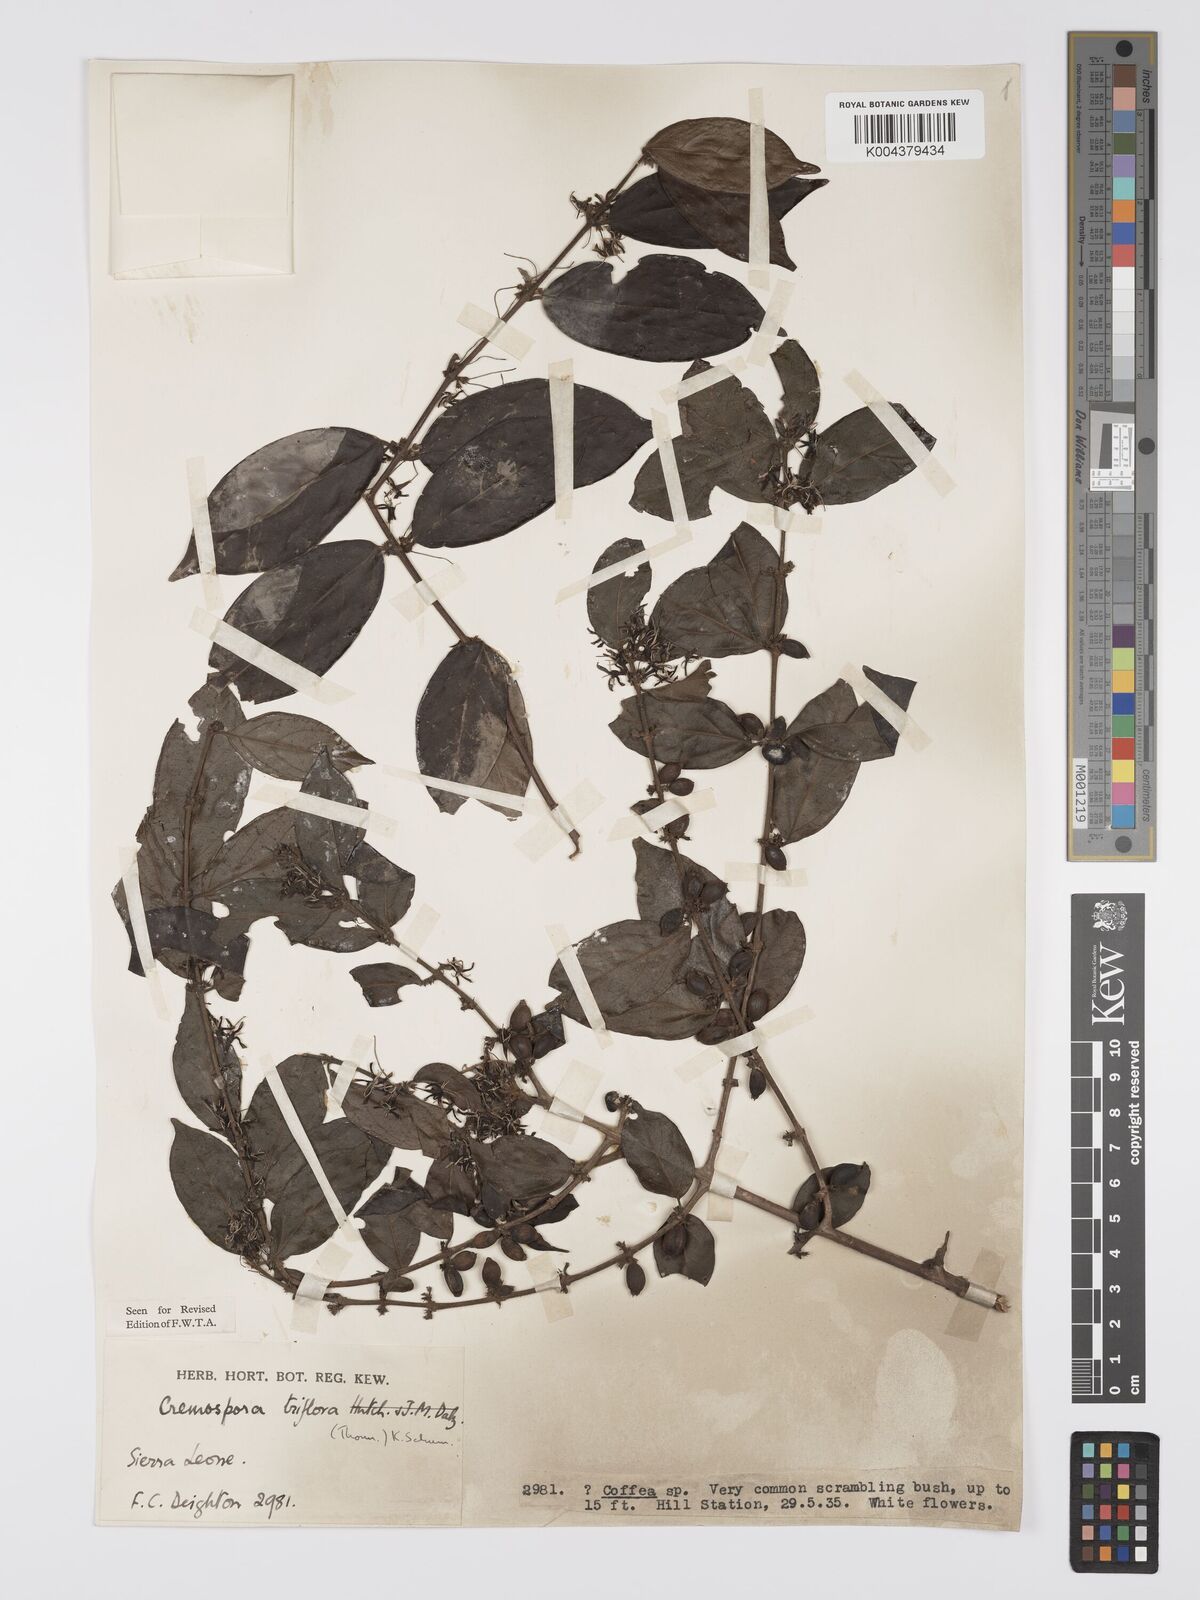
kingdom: Plantae
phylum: Tracheophyta
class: Magnoliopsida
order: Gentianales
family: Rubiaceae
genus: Cremaspora
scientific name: Cremaspora triflora
